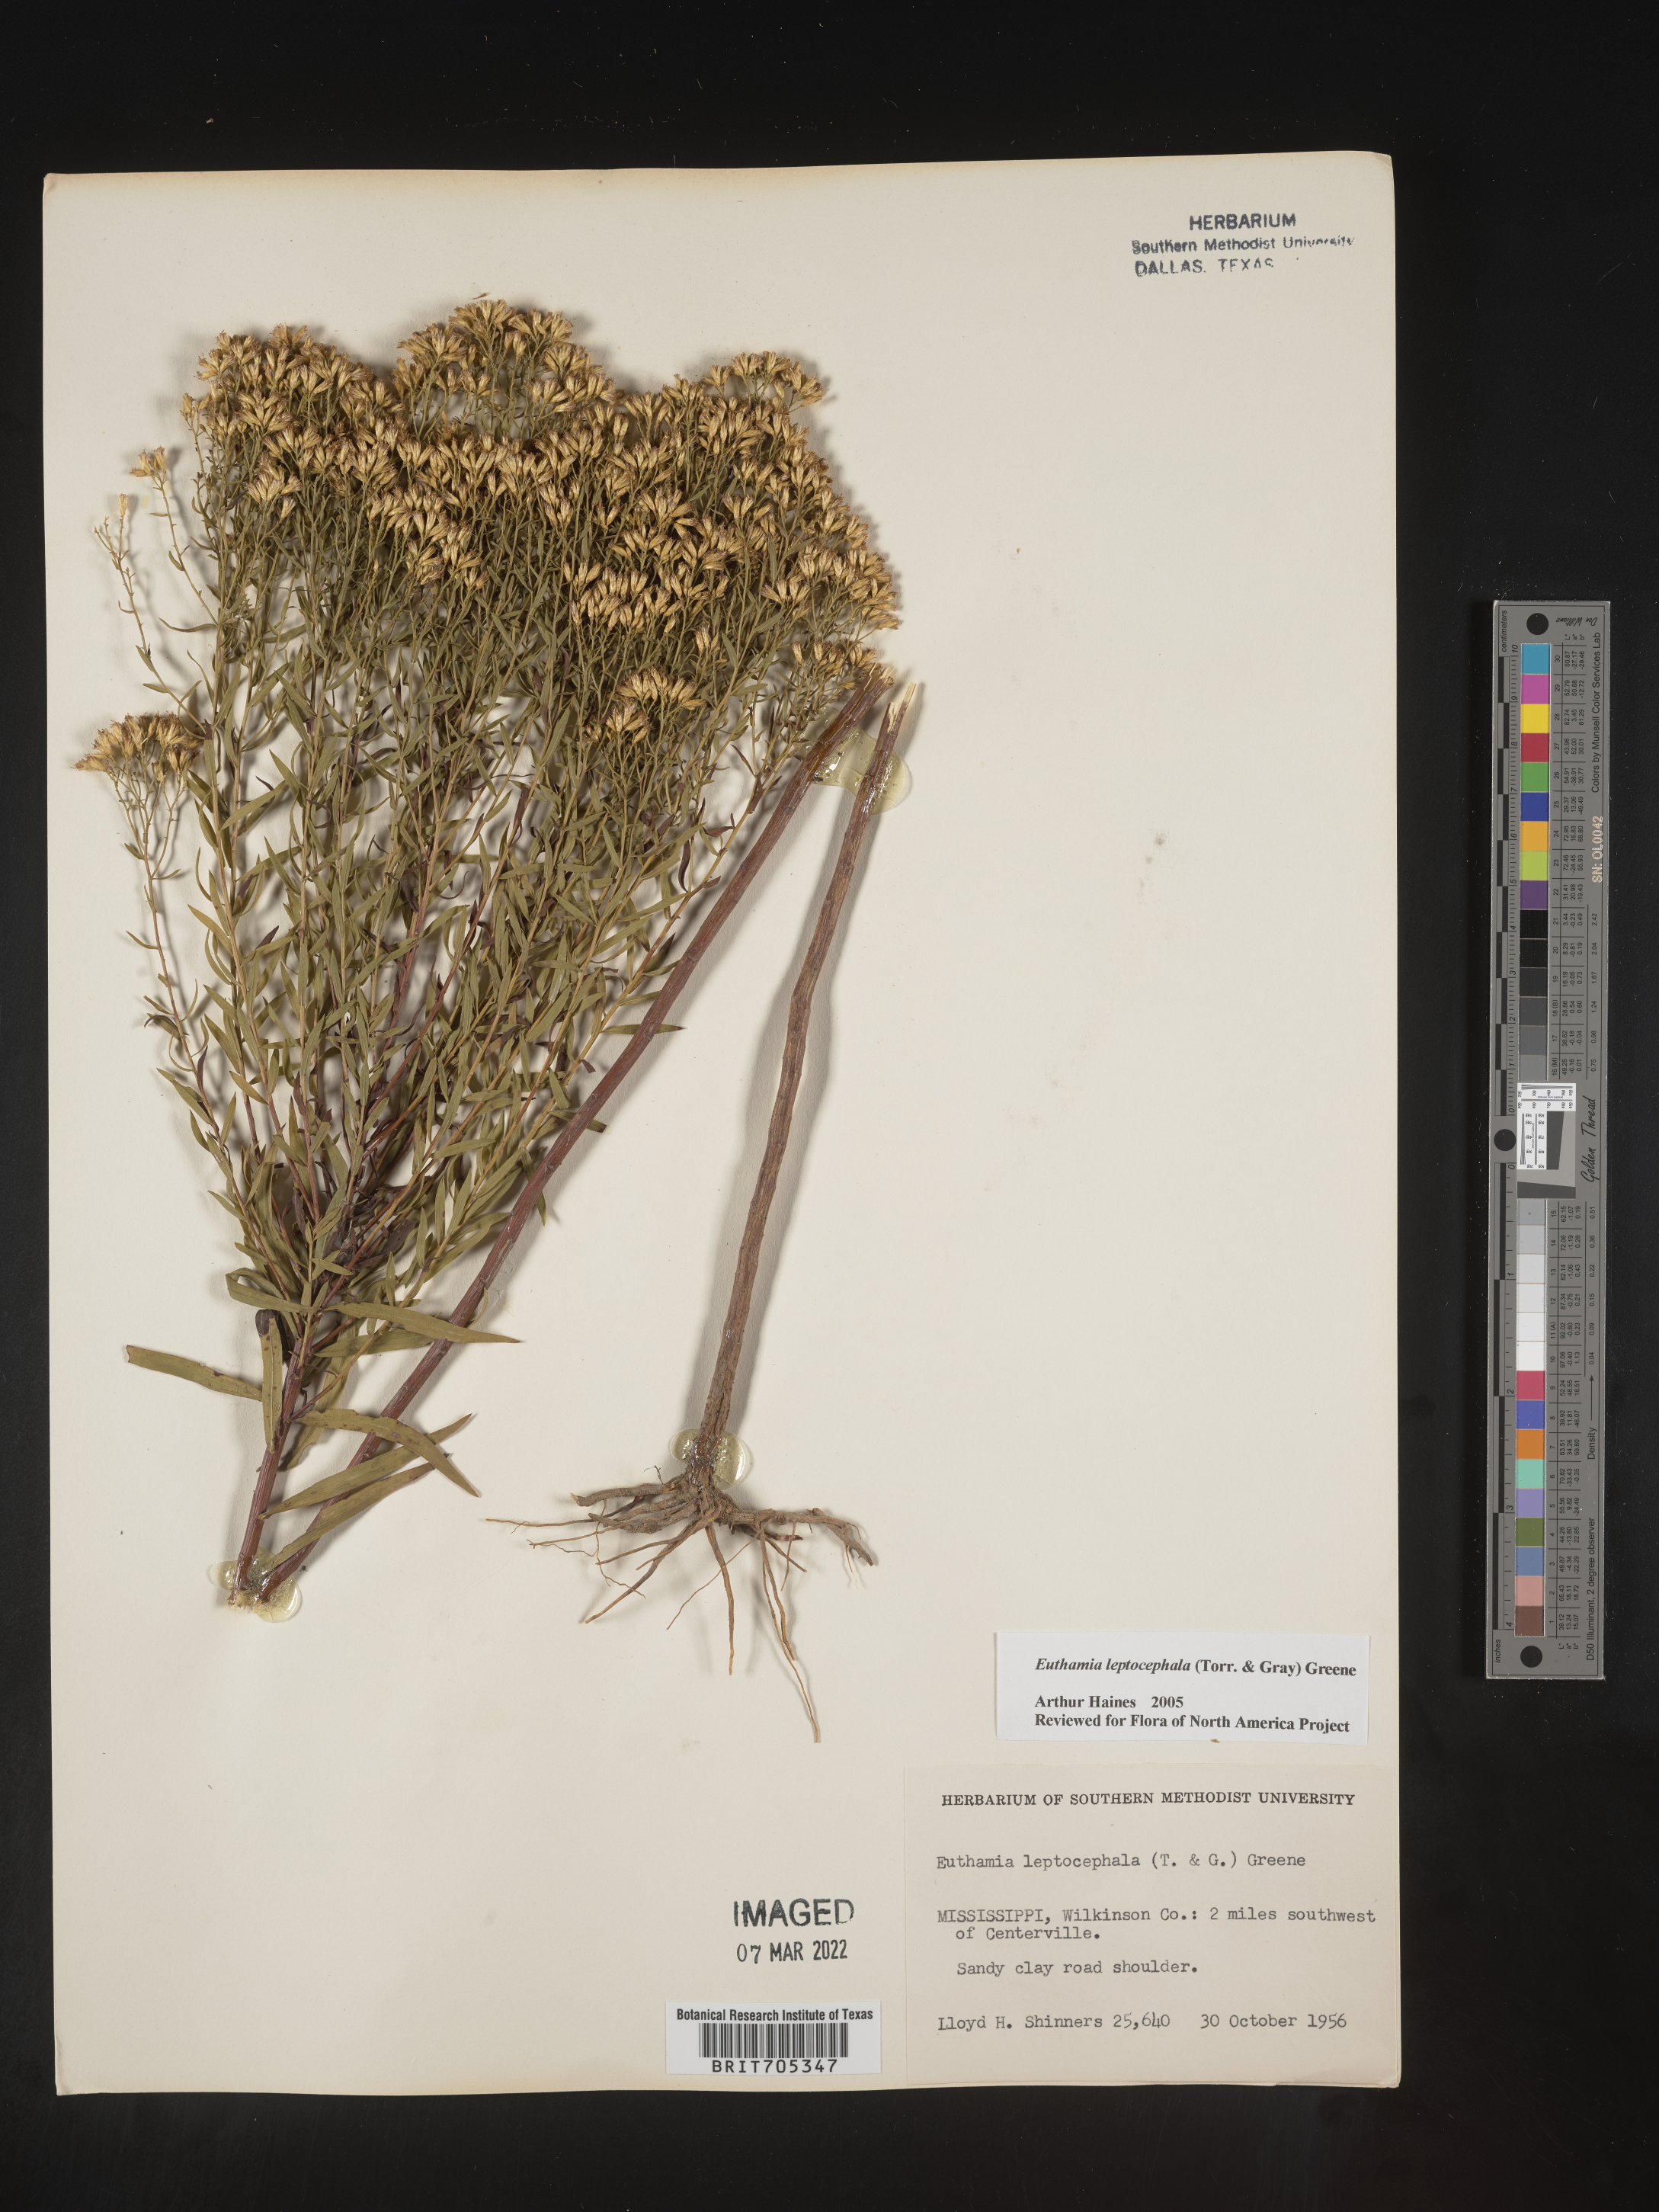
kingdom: Plantae
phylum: Tracheophyta
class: Magnoliopsida
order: Asterales
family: Asteraceae
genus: Euthamia
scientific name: Euthamia leptocephala
